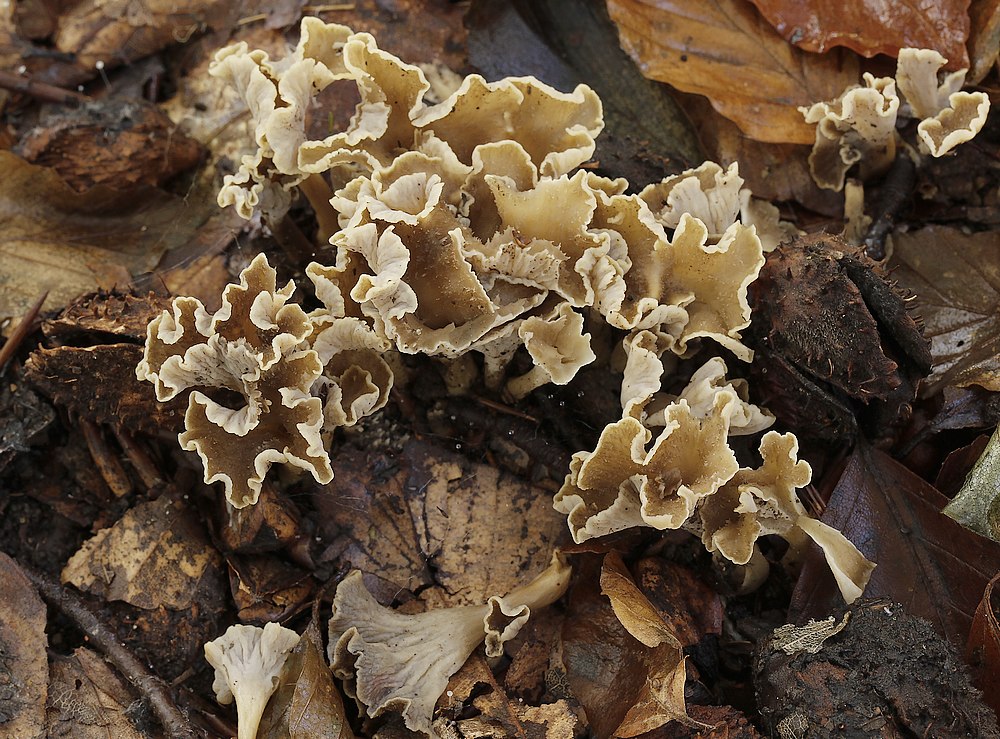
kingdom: Fungi
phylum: Basidiomycota
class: Agaricomycetes
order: Cantharellales
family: Hydnaceae
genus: Craterellus
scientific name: Craterellus undulatus
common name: liden kantarel
